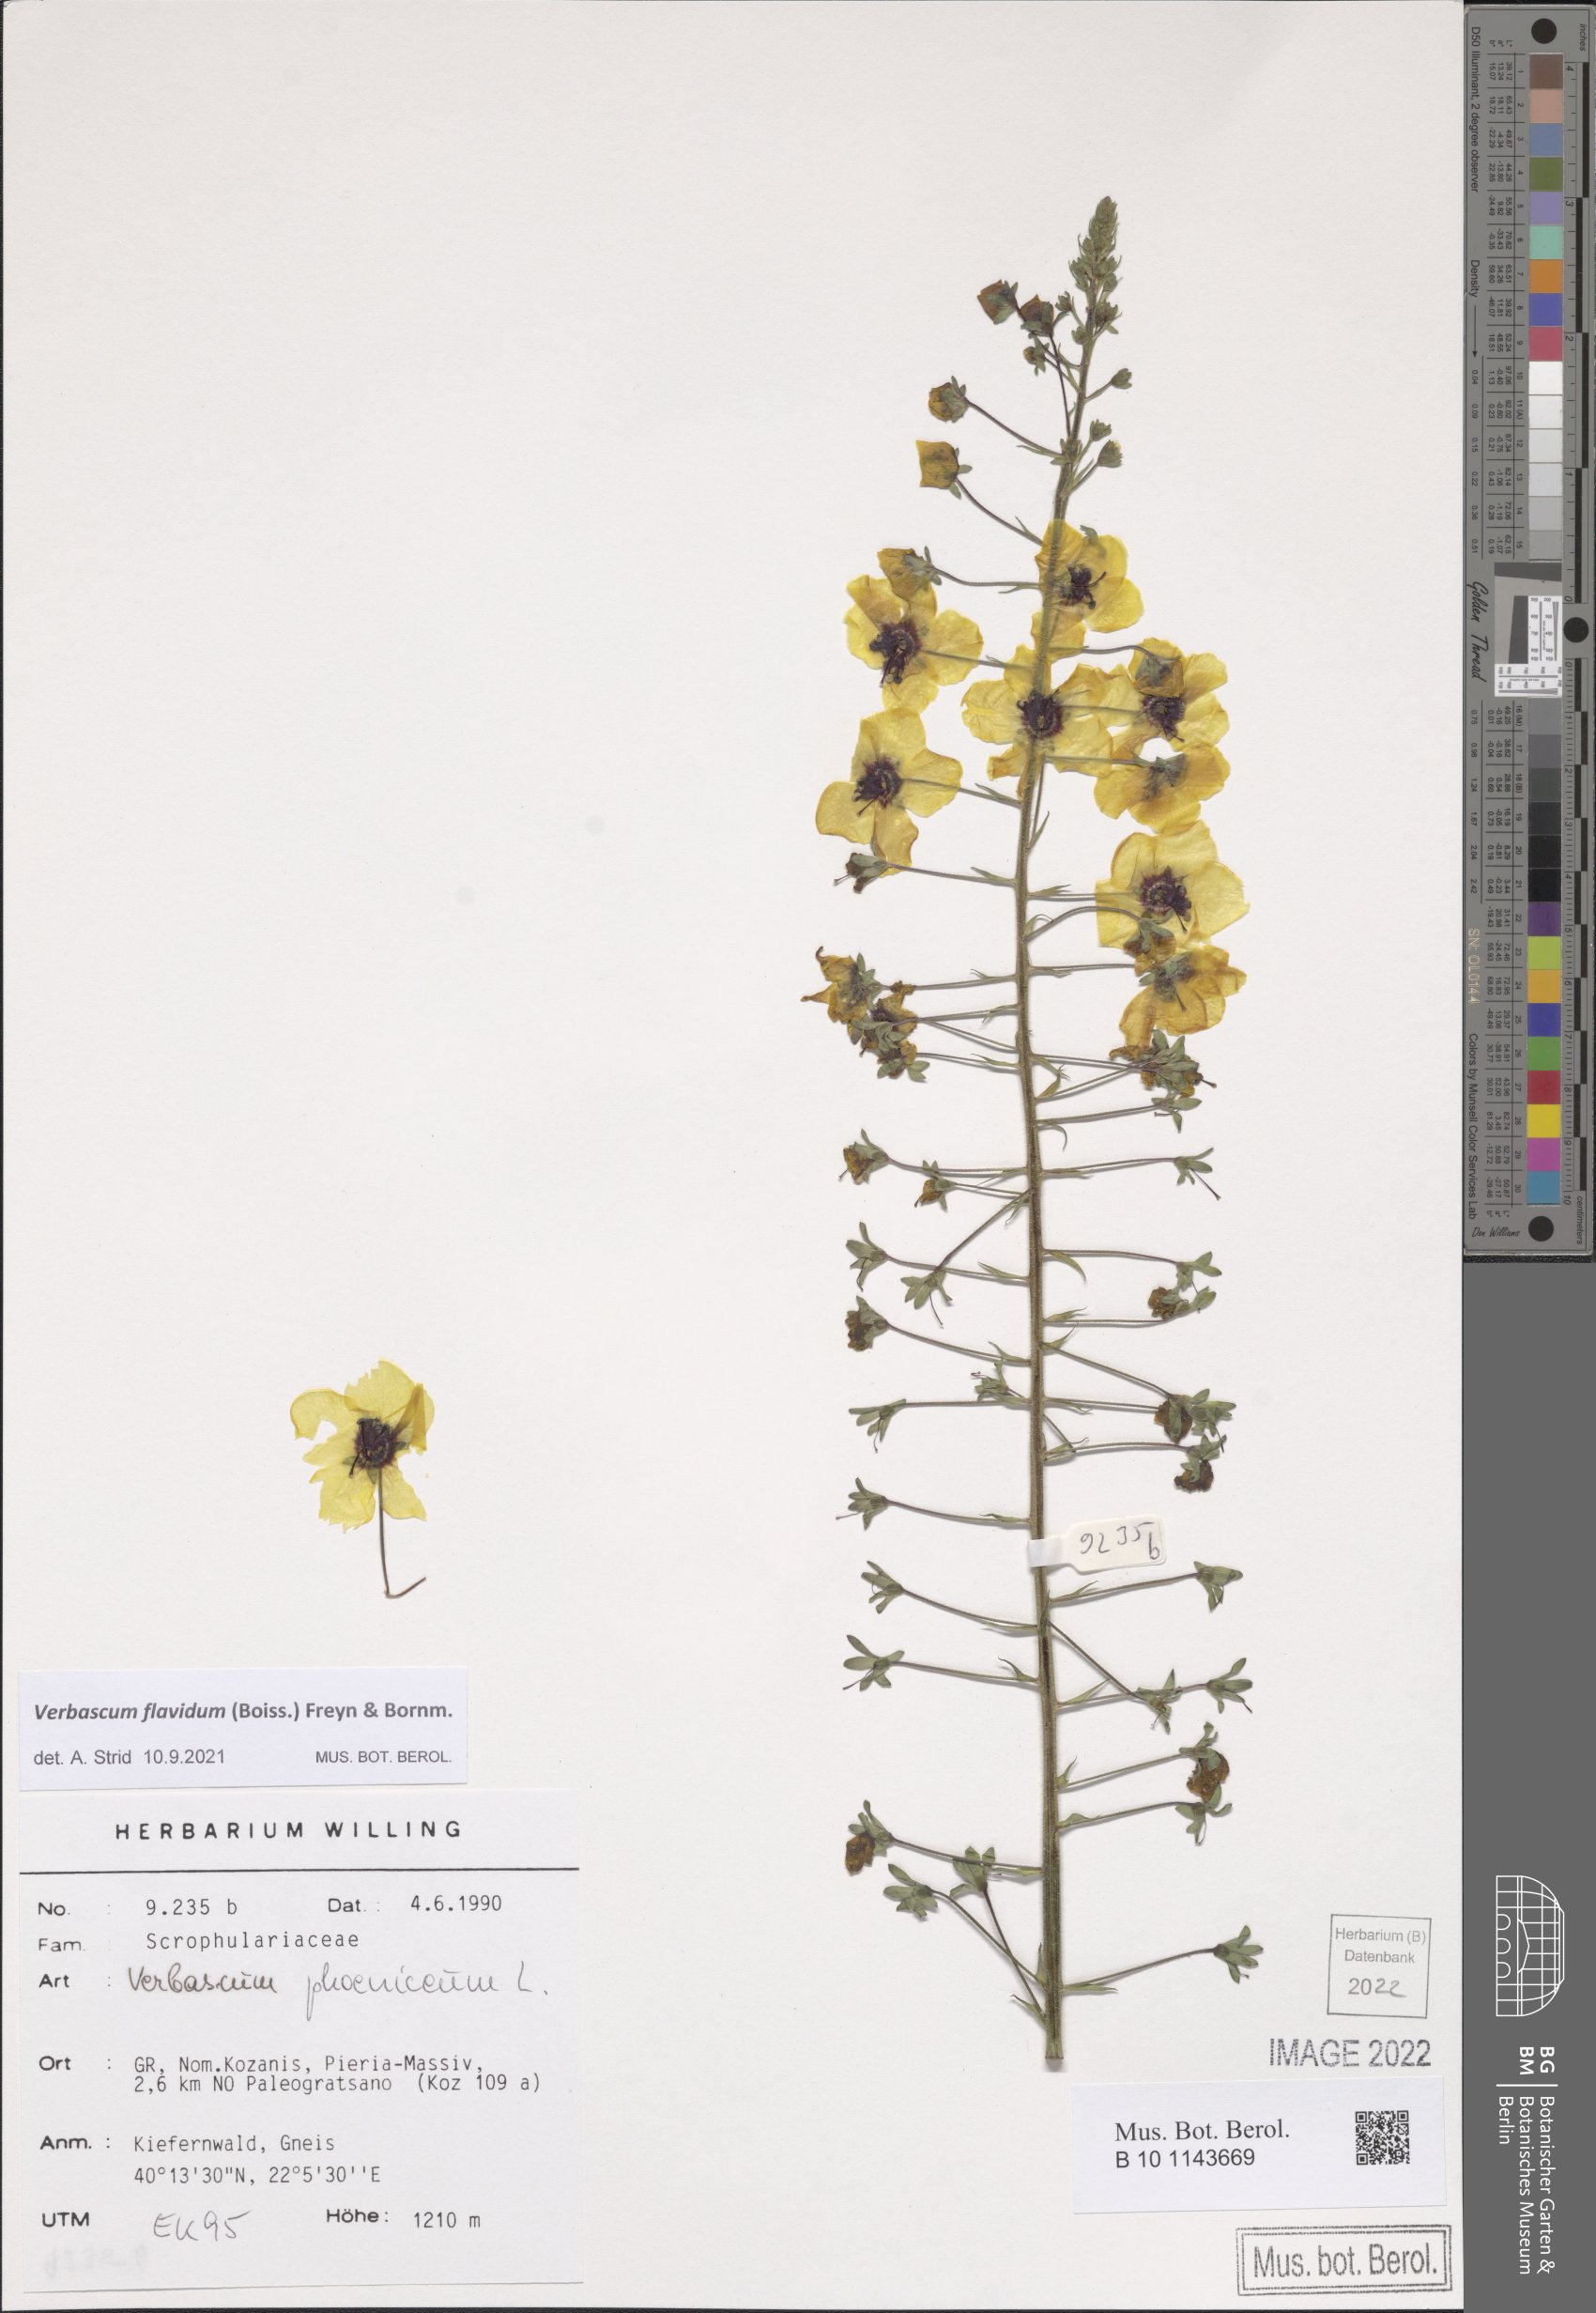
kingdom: Plantae
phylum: Tracheophyta
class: Magnoliopsida
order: Lamiales
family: Scrophulariaceae
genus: Verbascum
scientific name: Verbascum flavidum
